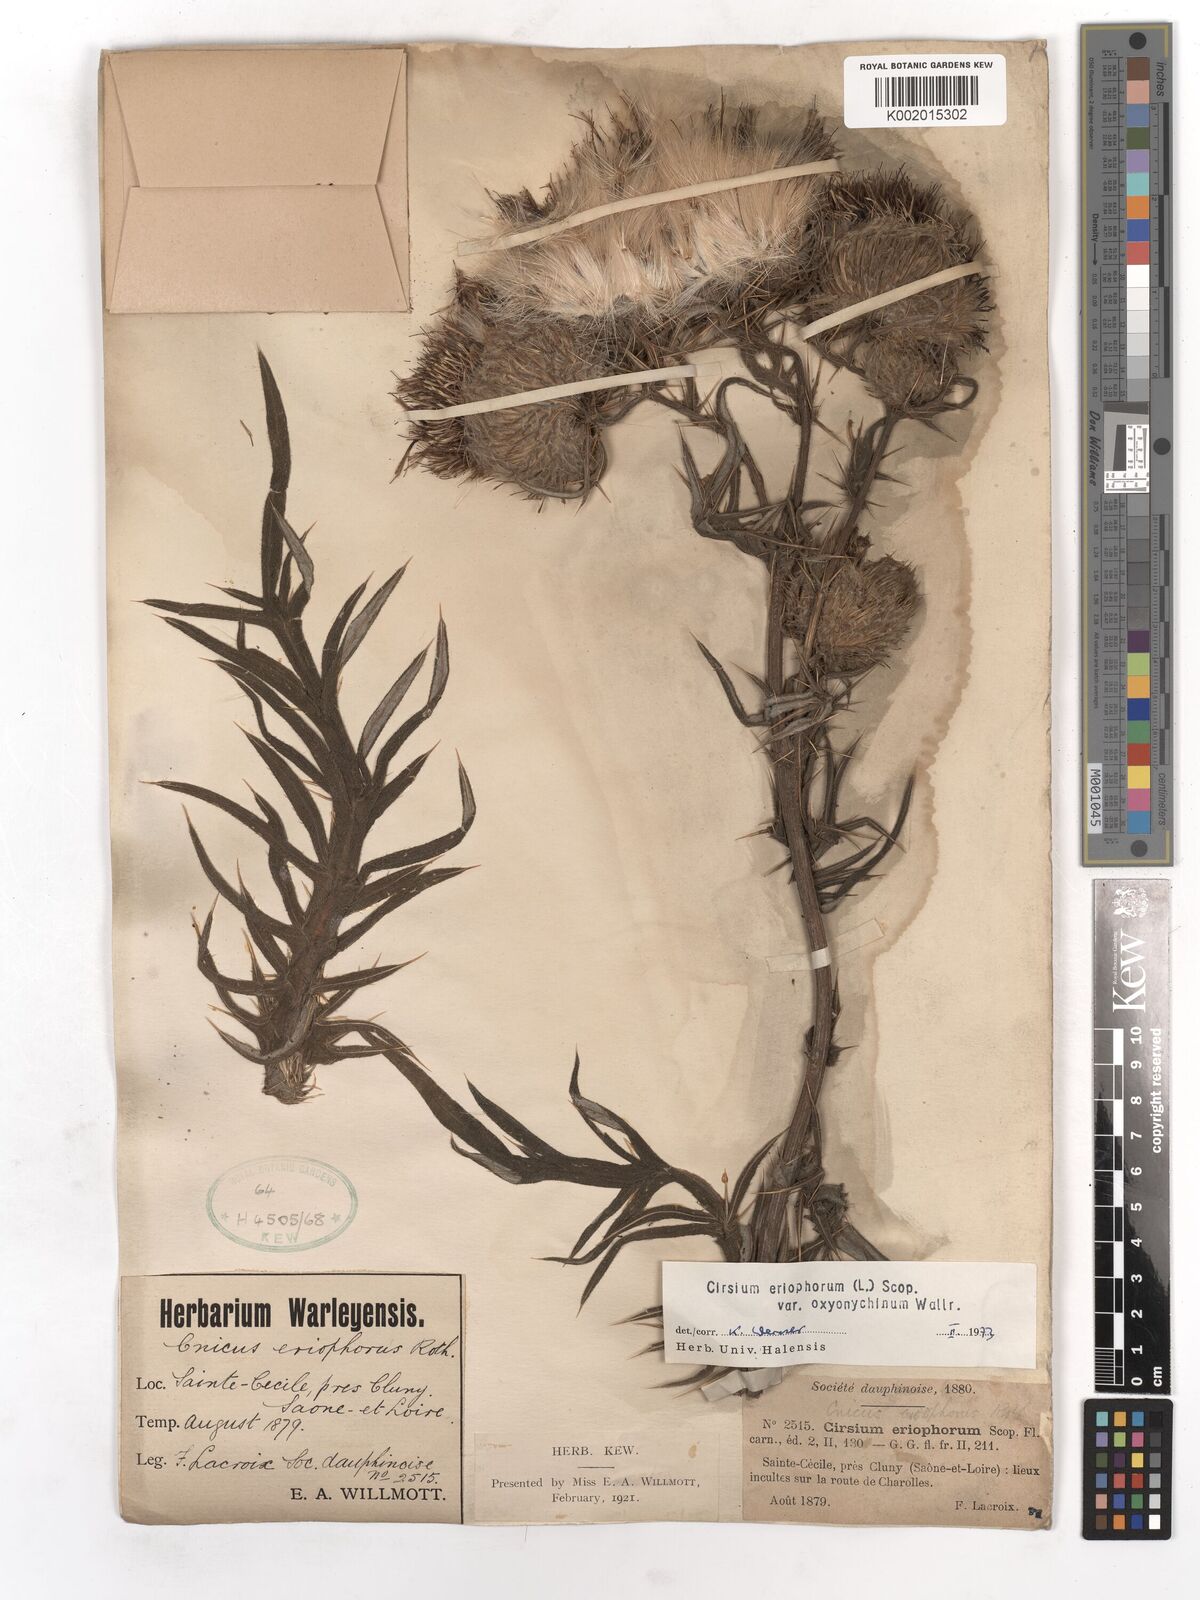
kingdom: Plantae
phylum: Tracheophyta
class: Magnoliopsida
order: Asterales
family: Asteraceae
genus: Lophiolepis
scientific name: Lophiolepis eriophora
